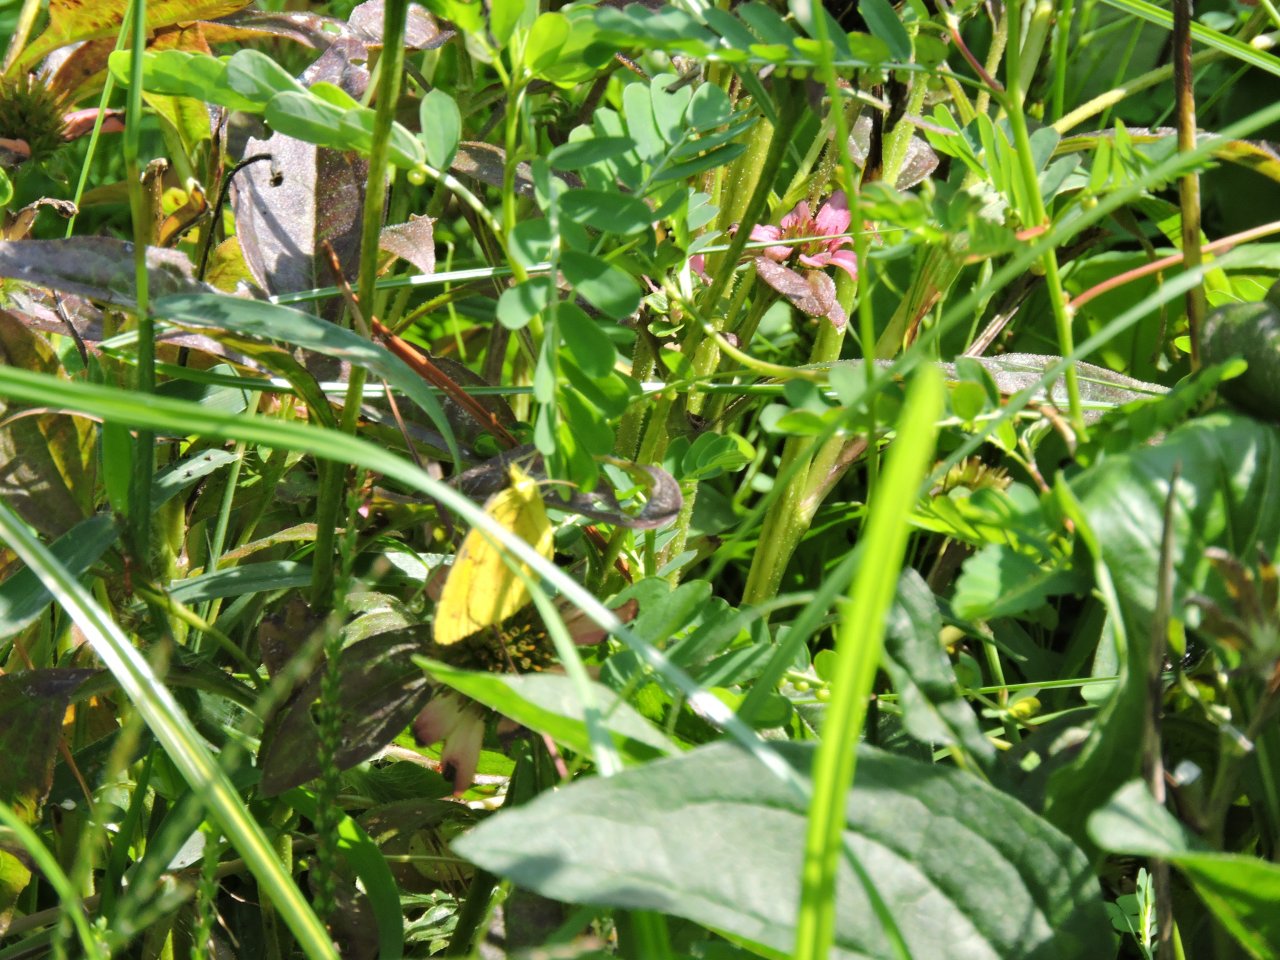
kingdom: Animalia
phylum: Arthropoda
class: Insecta
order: Lepidoptera
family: Pieridae
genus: Abaeis
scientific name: Abaeis nicippe
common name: Sleepy Orange
